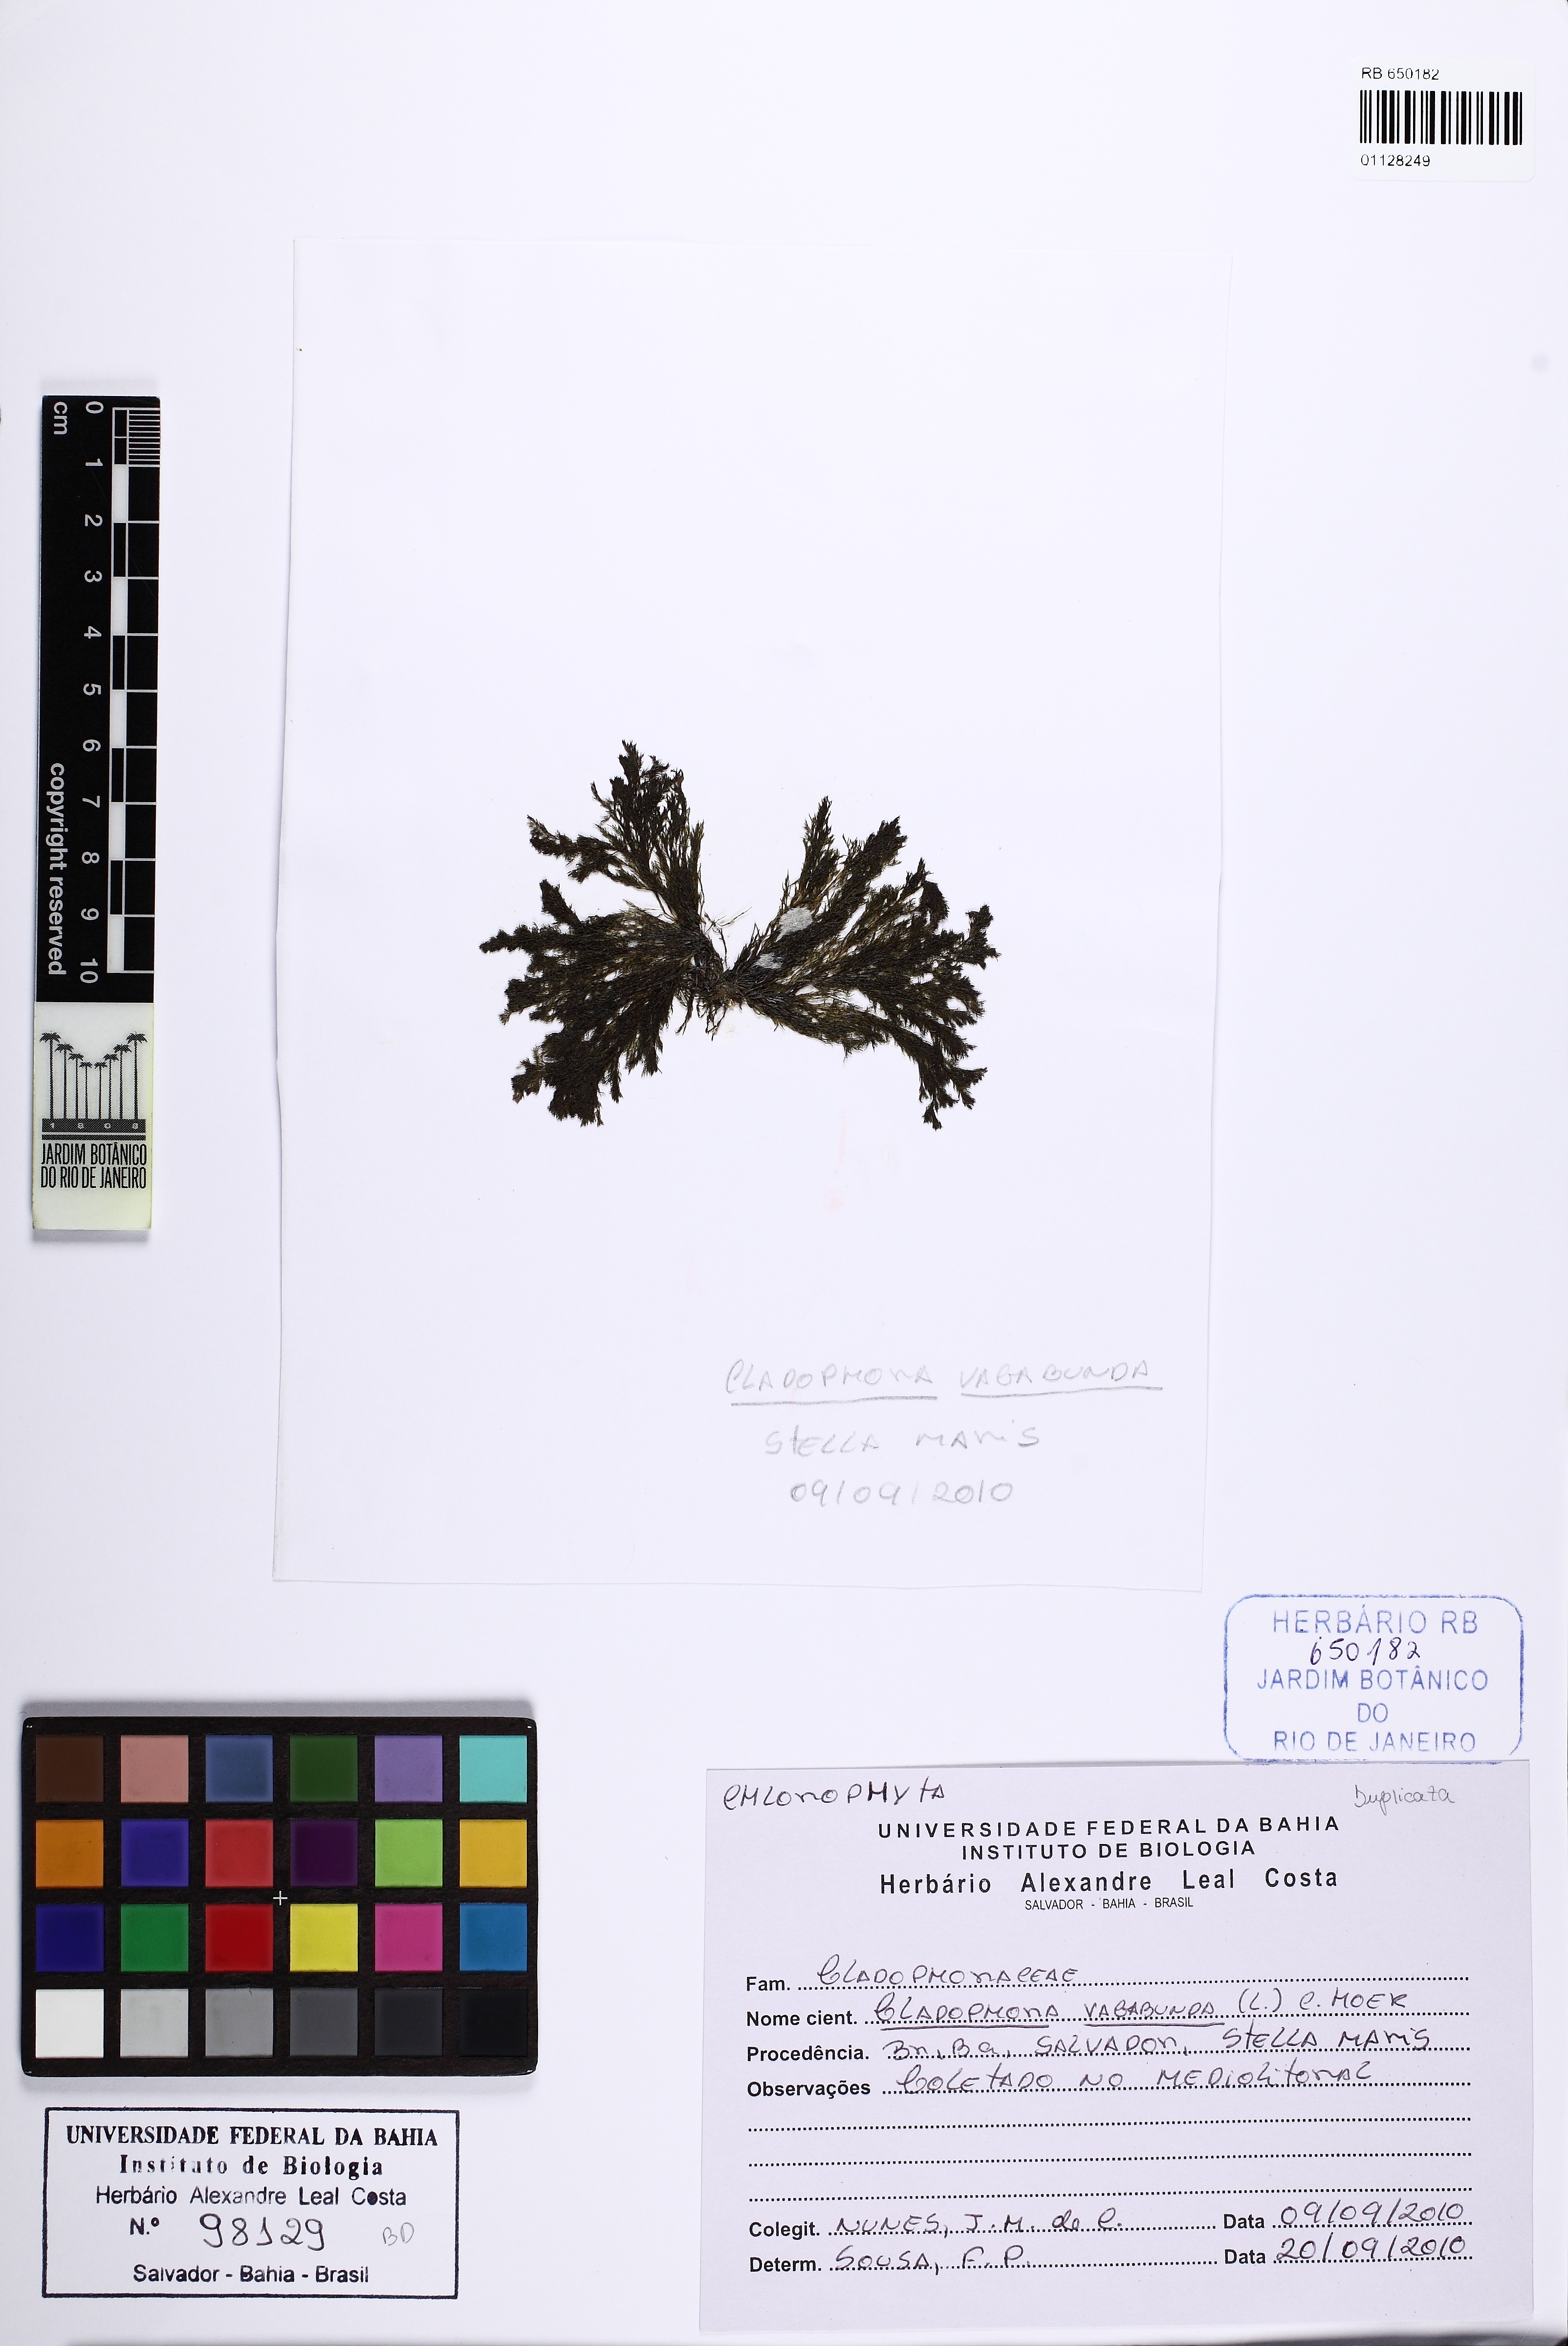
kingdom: Plantae
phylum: Chlorophyta
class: Ulvophyceae
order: Cladophorales
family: Cladophoraceae
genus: Cladophora
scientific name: Cladophora vagabunda
